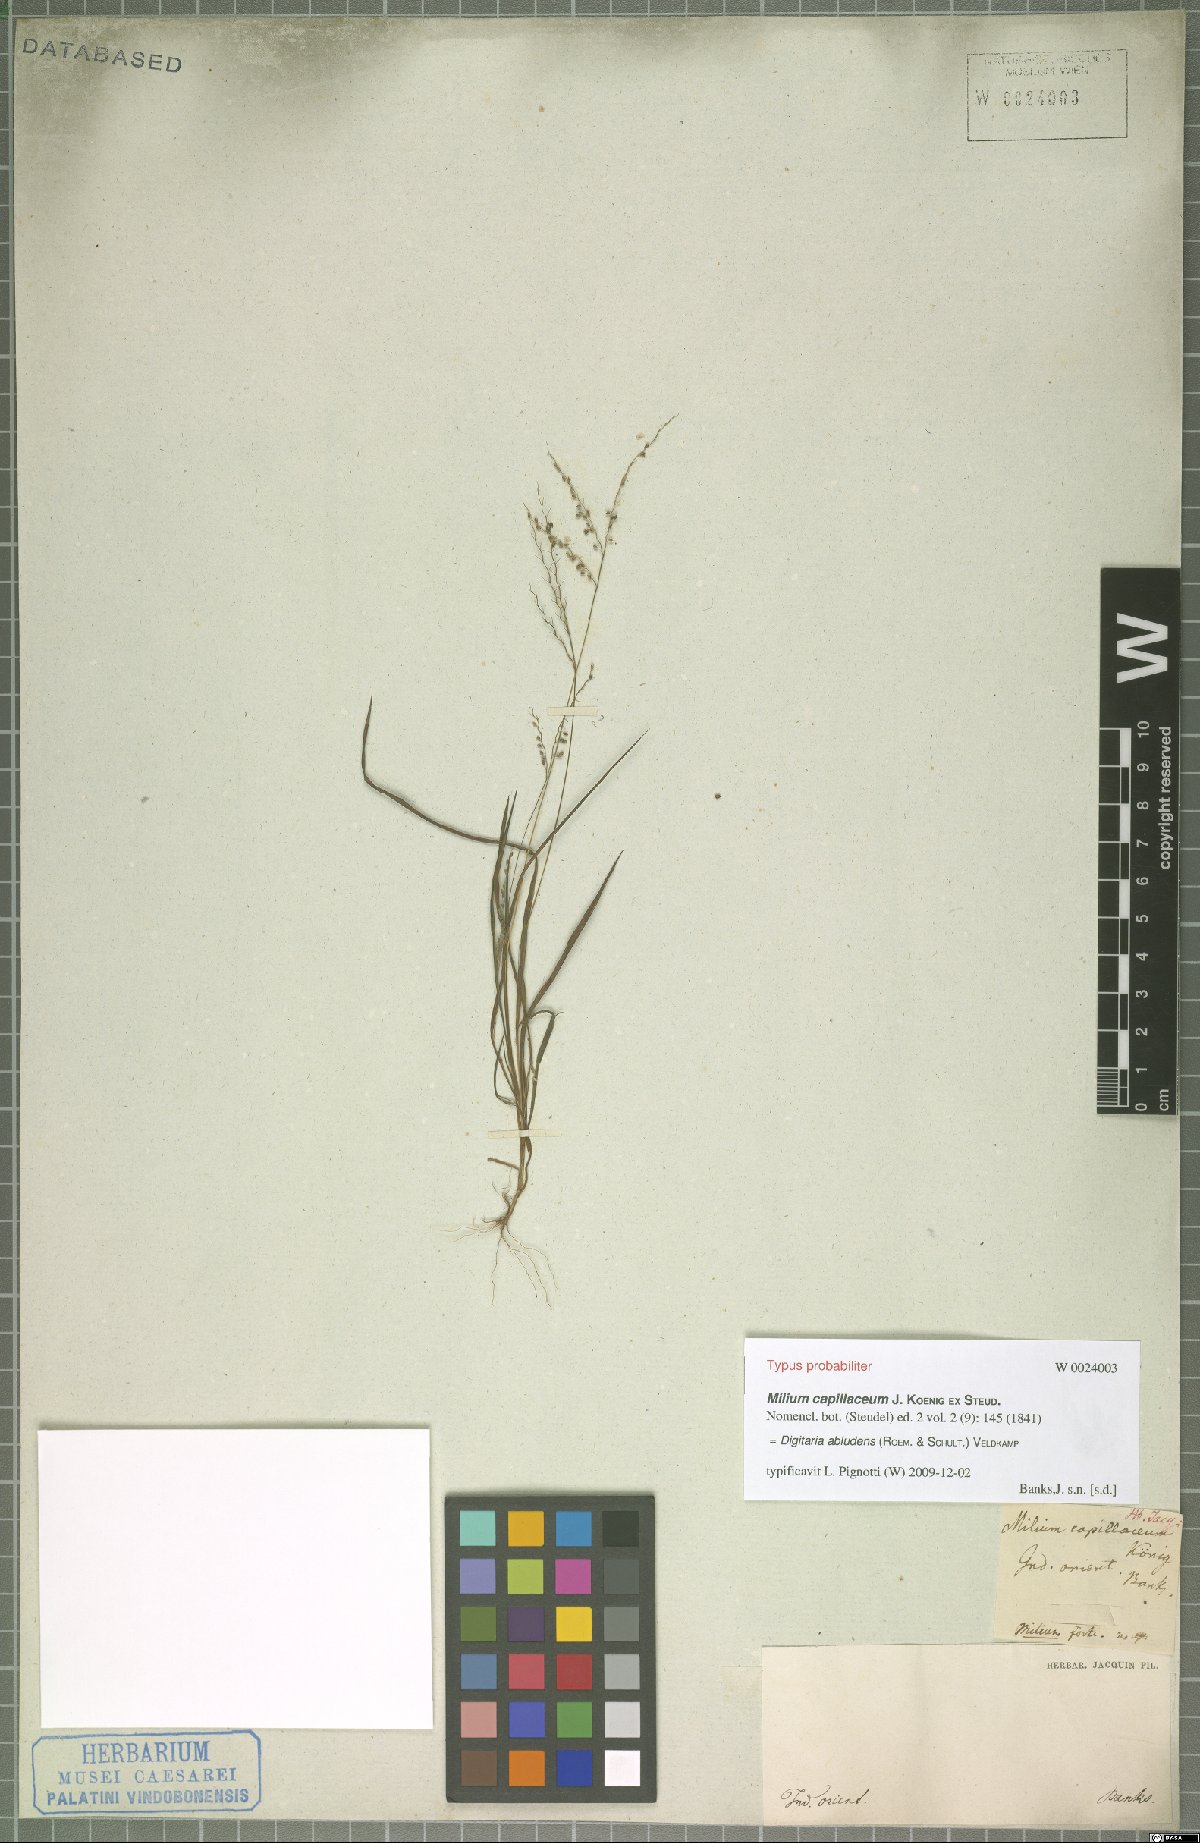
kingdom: Plantae
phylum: Tracheophyta
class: Liliopsida
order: Poales
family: Poaceae
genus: Digitaria
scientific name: Digitaria abludens
